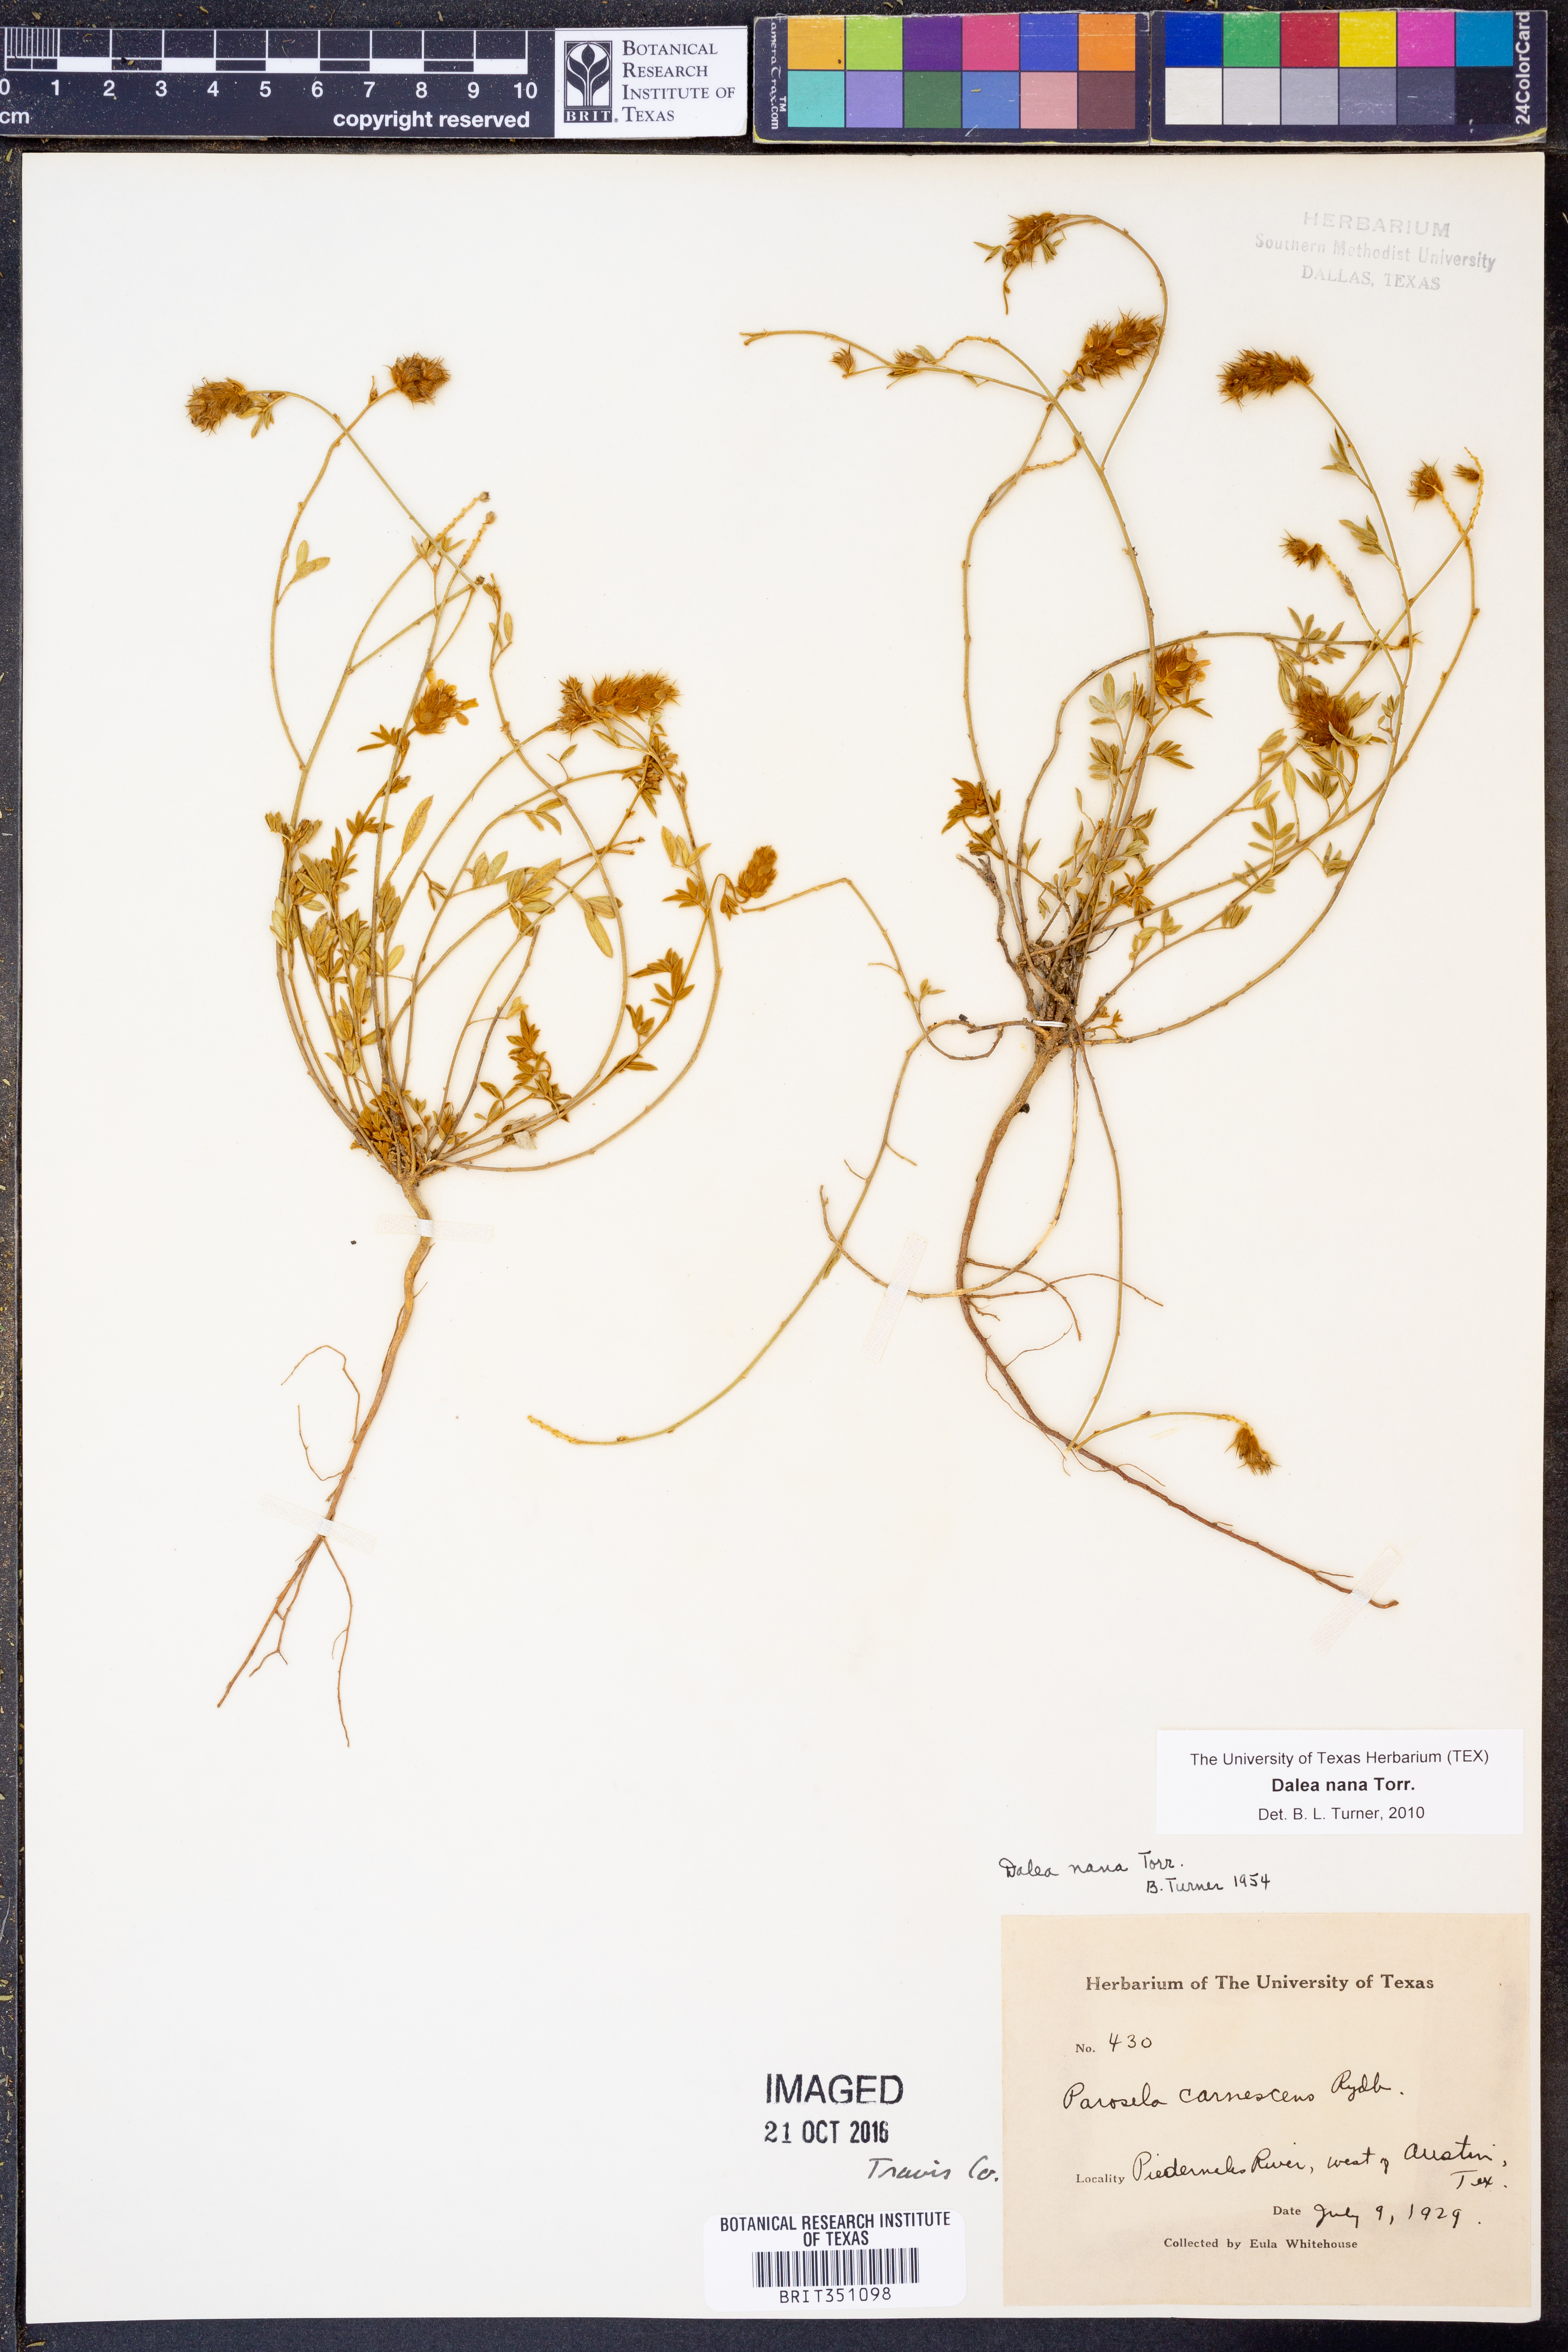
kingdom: Plantae
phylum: Tracheophyta
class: Magnoliopsida
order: Fabales
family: Fabaceae
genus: Dalea
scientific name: Dalea nana
